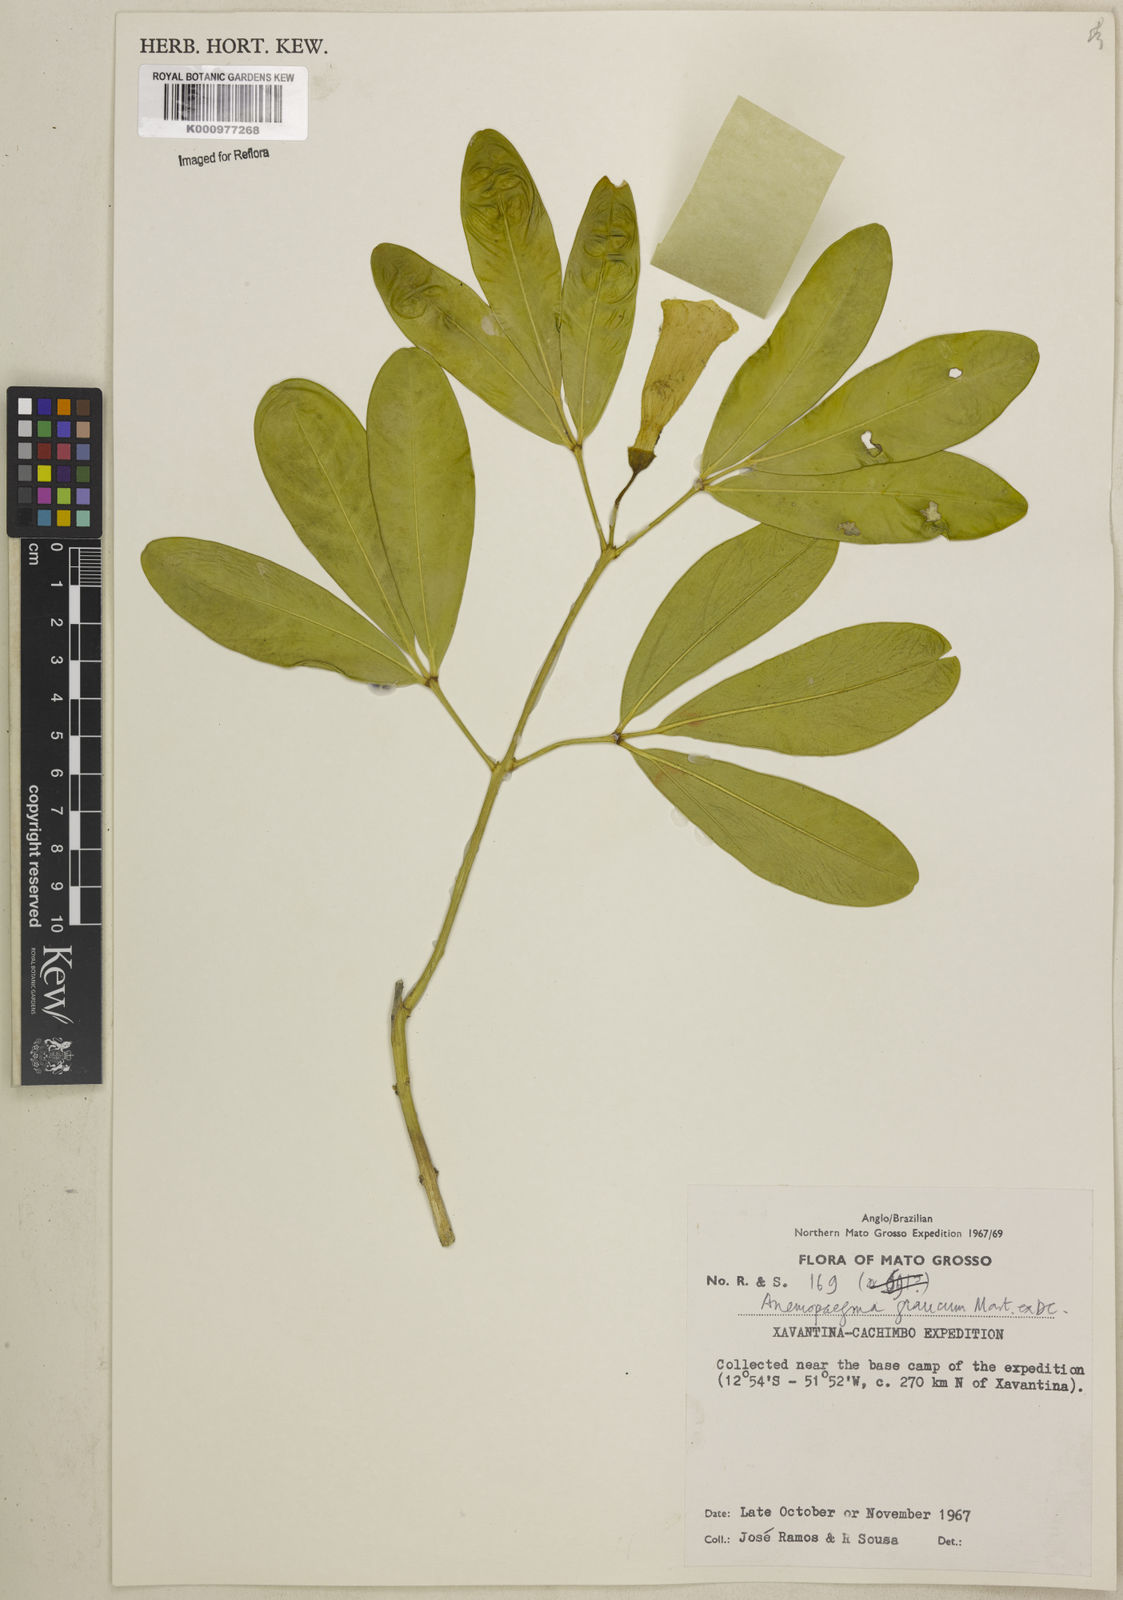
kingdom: Plantae
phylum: Tracheophyta
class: Magnoliopsida
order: Lamiales
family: Bignoniaceae
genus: Anemopaegma
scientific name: Anemopaegma glaucum
